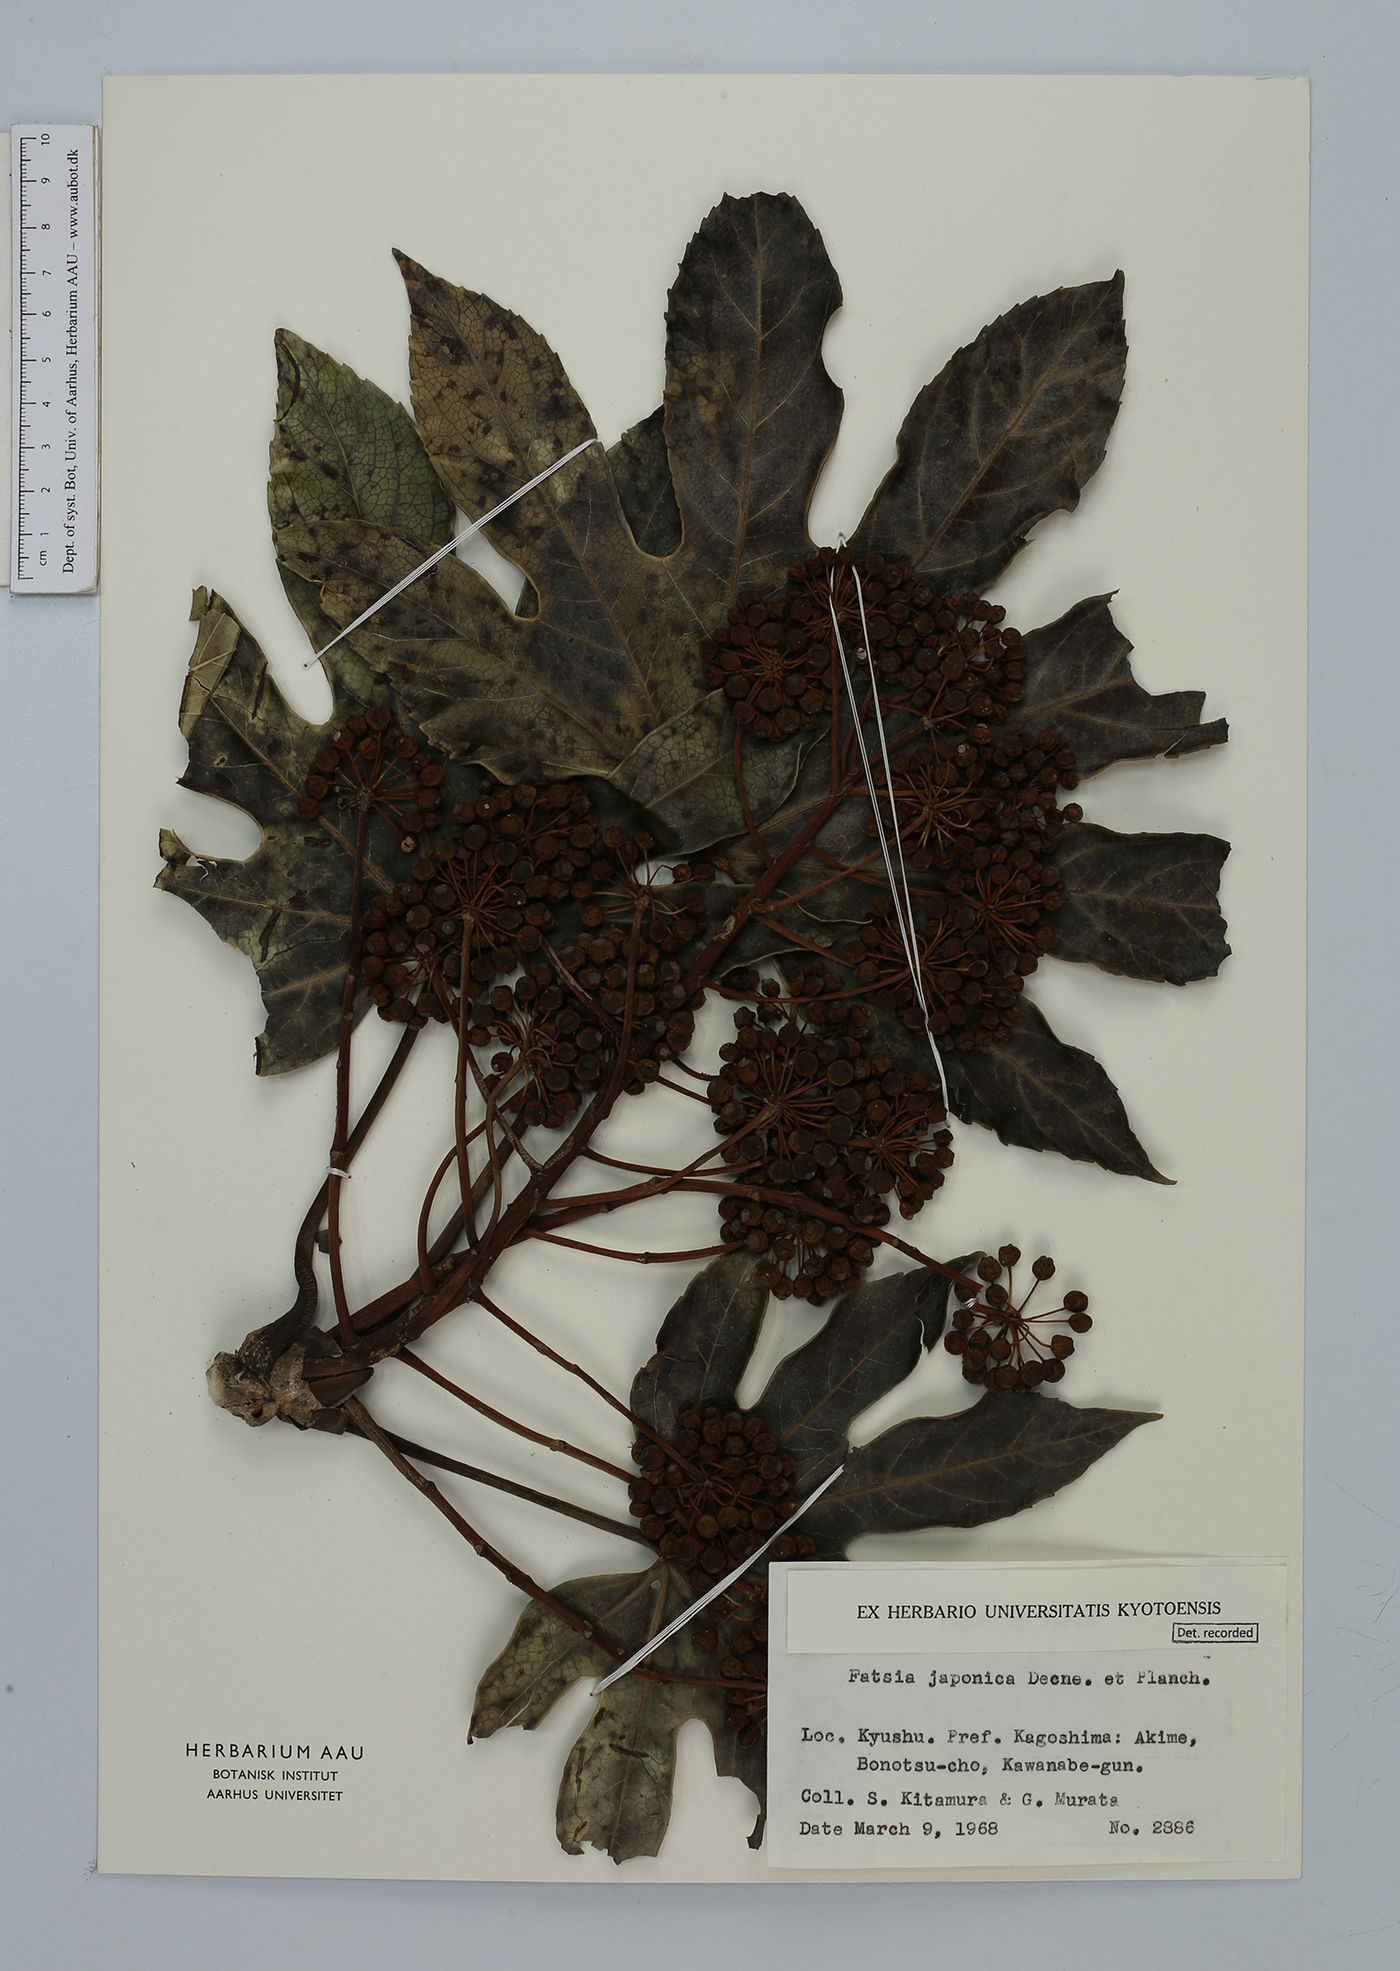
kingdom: Plantae
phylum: Tracheophyta
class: Magnoliopsida
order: Apiales
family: Araliaceae
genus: Fatsia
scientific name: Fatsia japonica
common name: Fatsia
